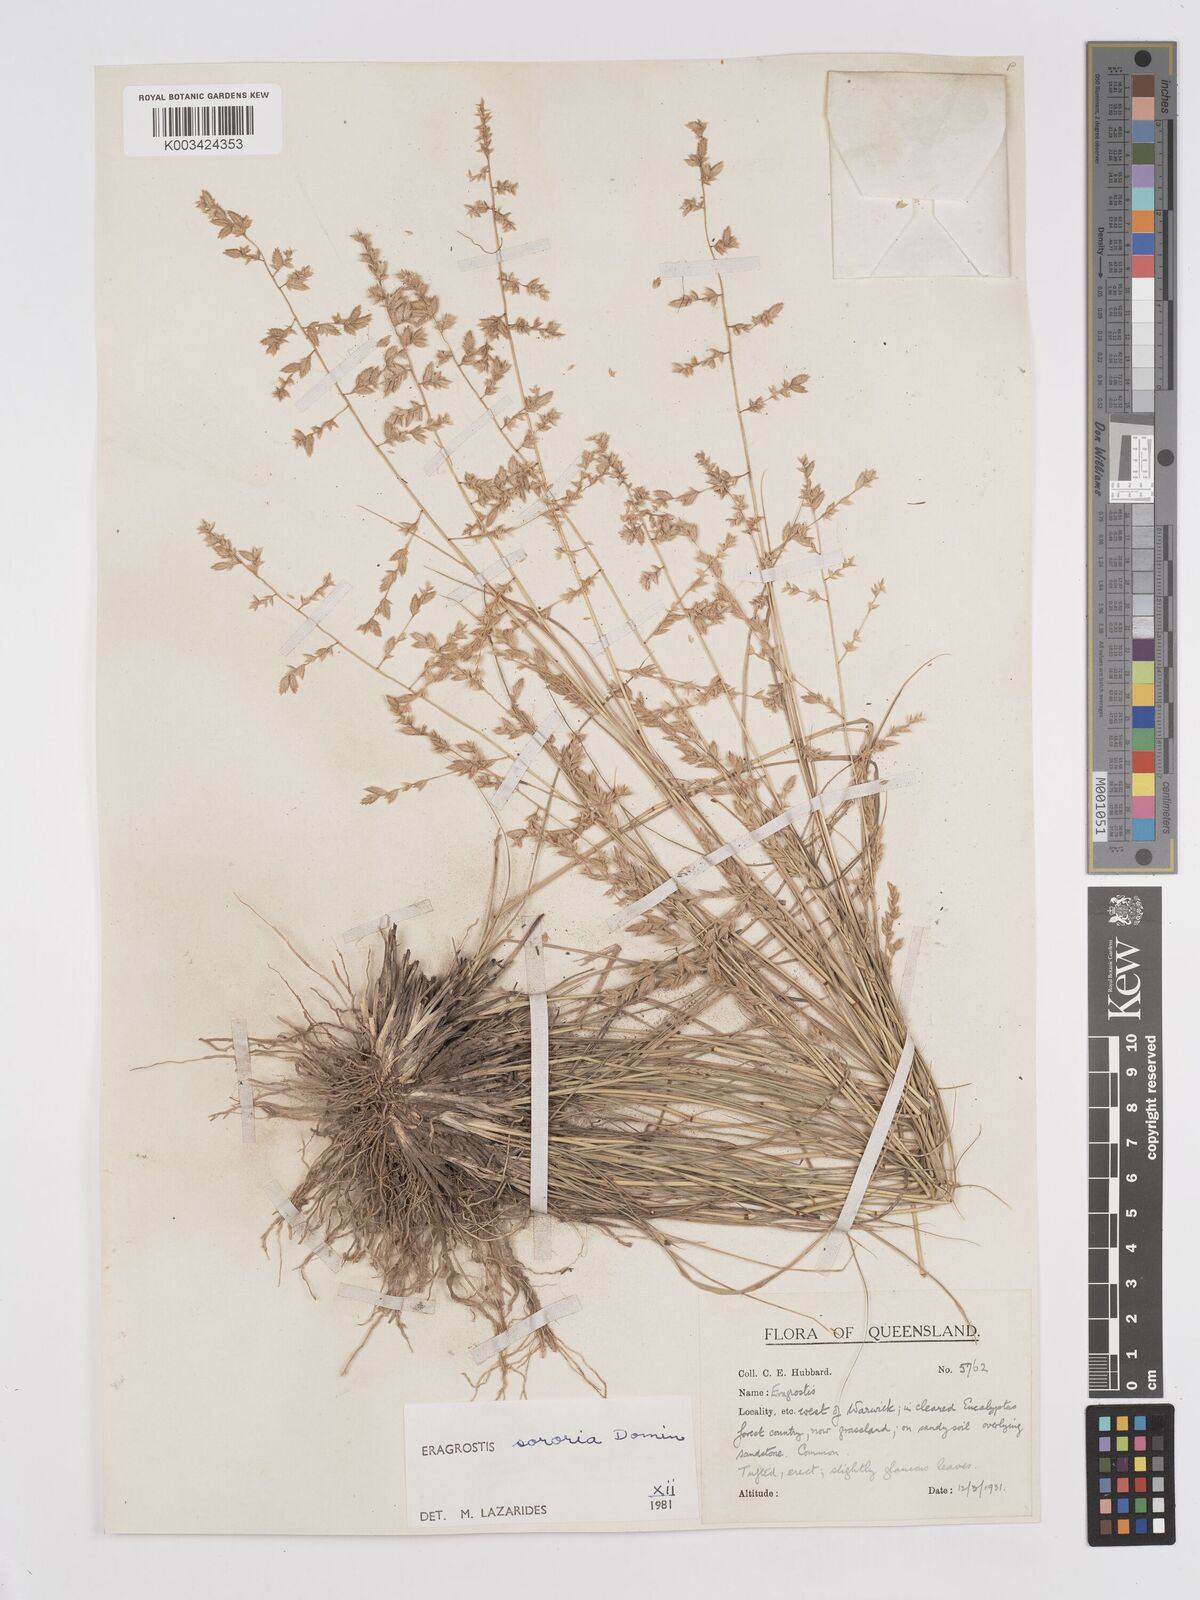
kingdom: Plantae
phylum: Tracheophyta
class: Liliopsida
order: Poales
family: Poaceae
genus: Eragrostis
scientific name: Eragrostis sororia
